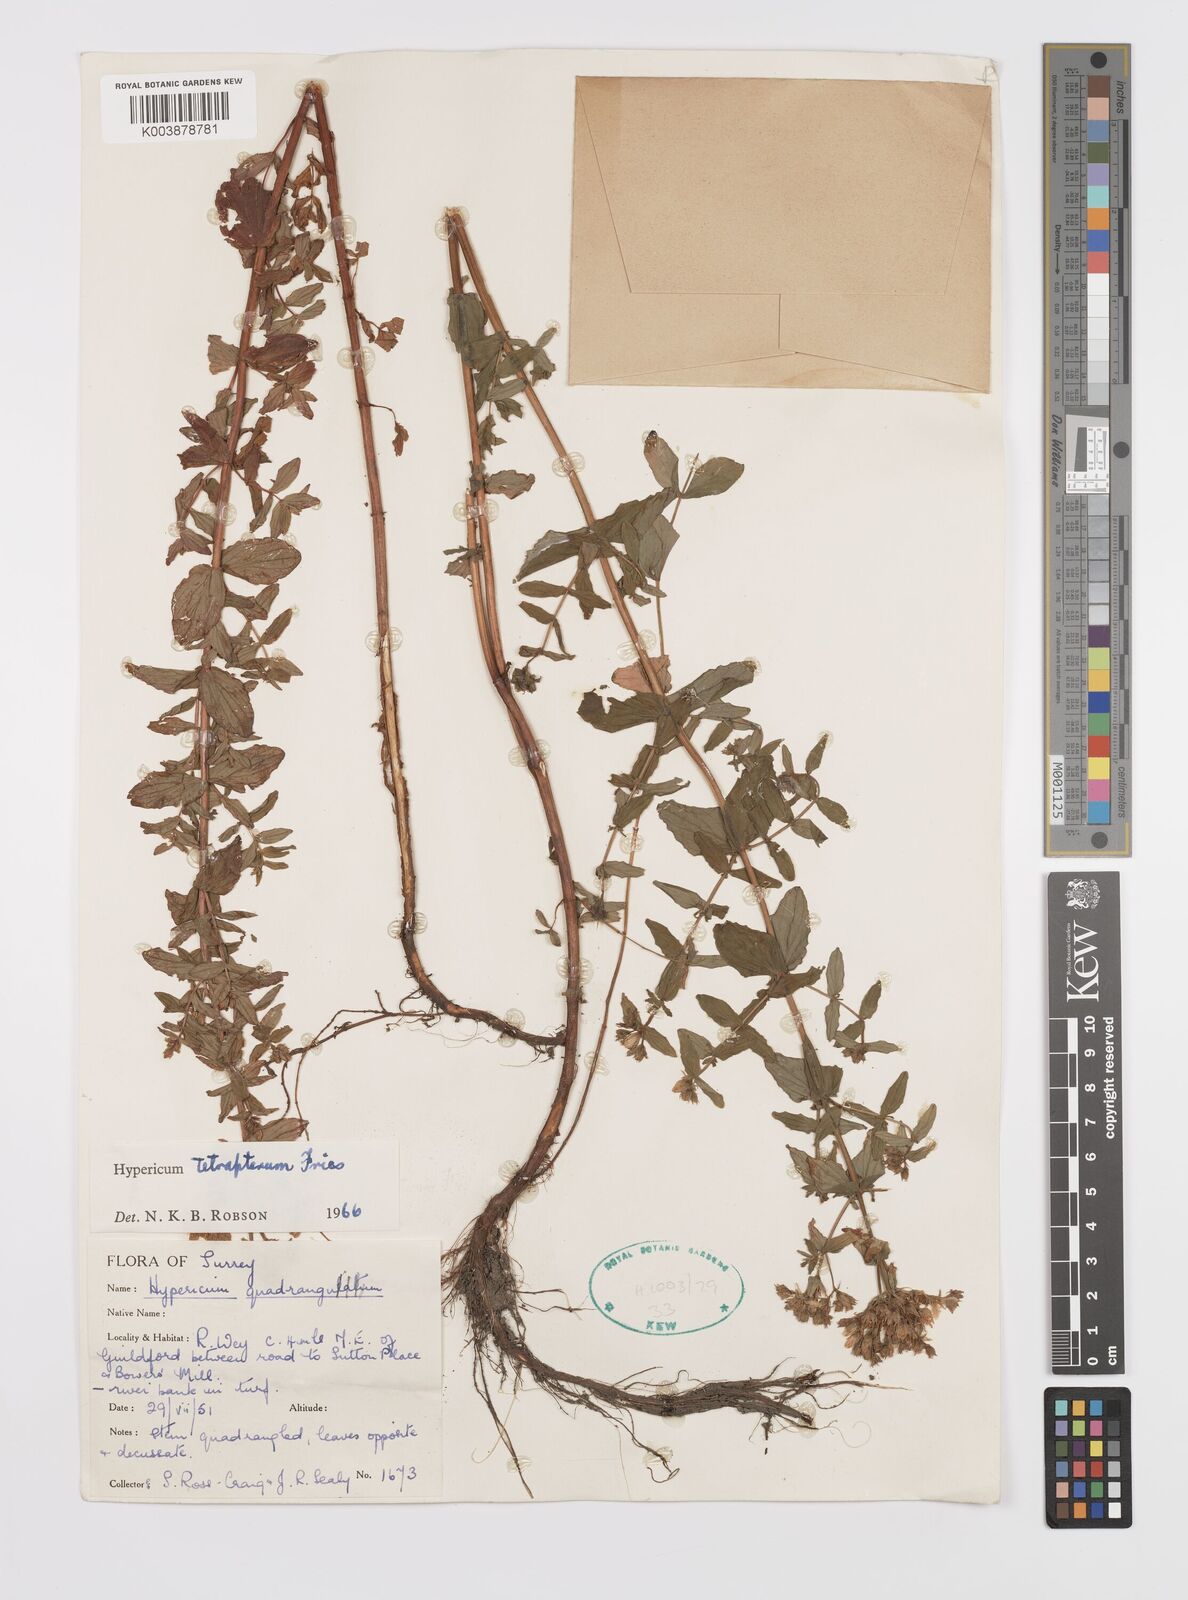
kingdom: Plantae
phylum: Tracheophyta
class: Magnoliopsida
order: Malpighiales
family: Hypericaceae
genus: Hypericum
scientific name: Hypericum tetrapterum
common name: Square-stalked st. john's-wort
